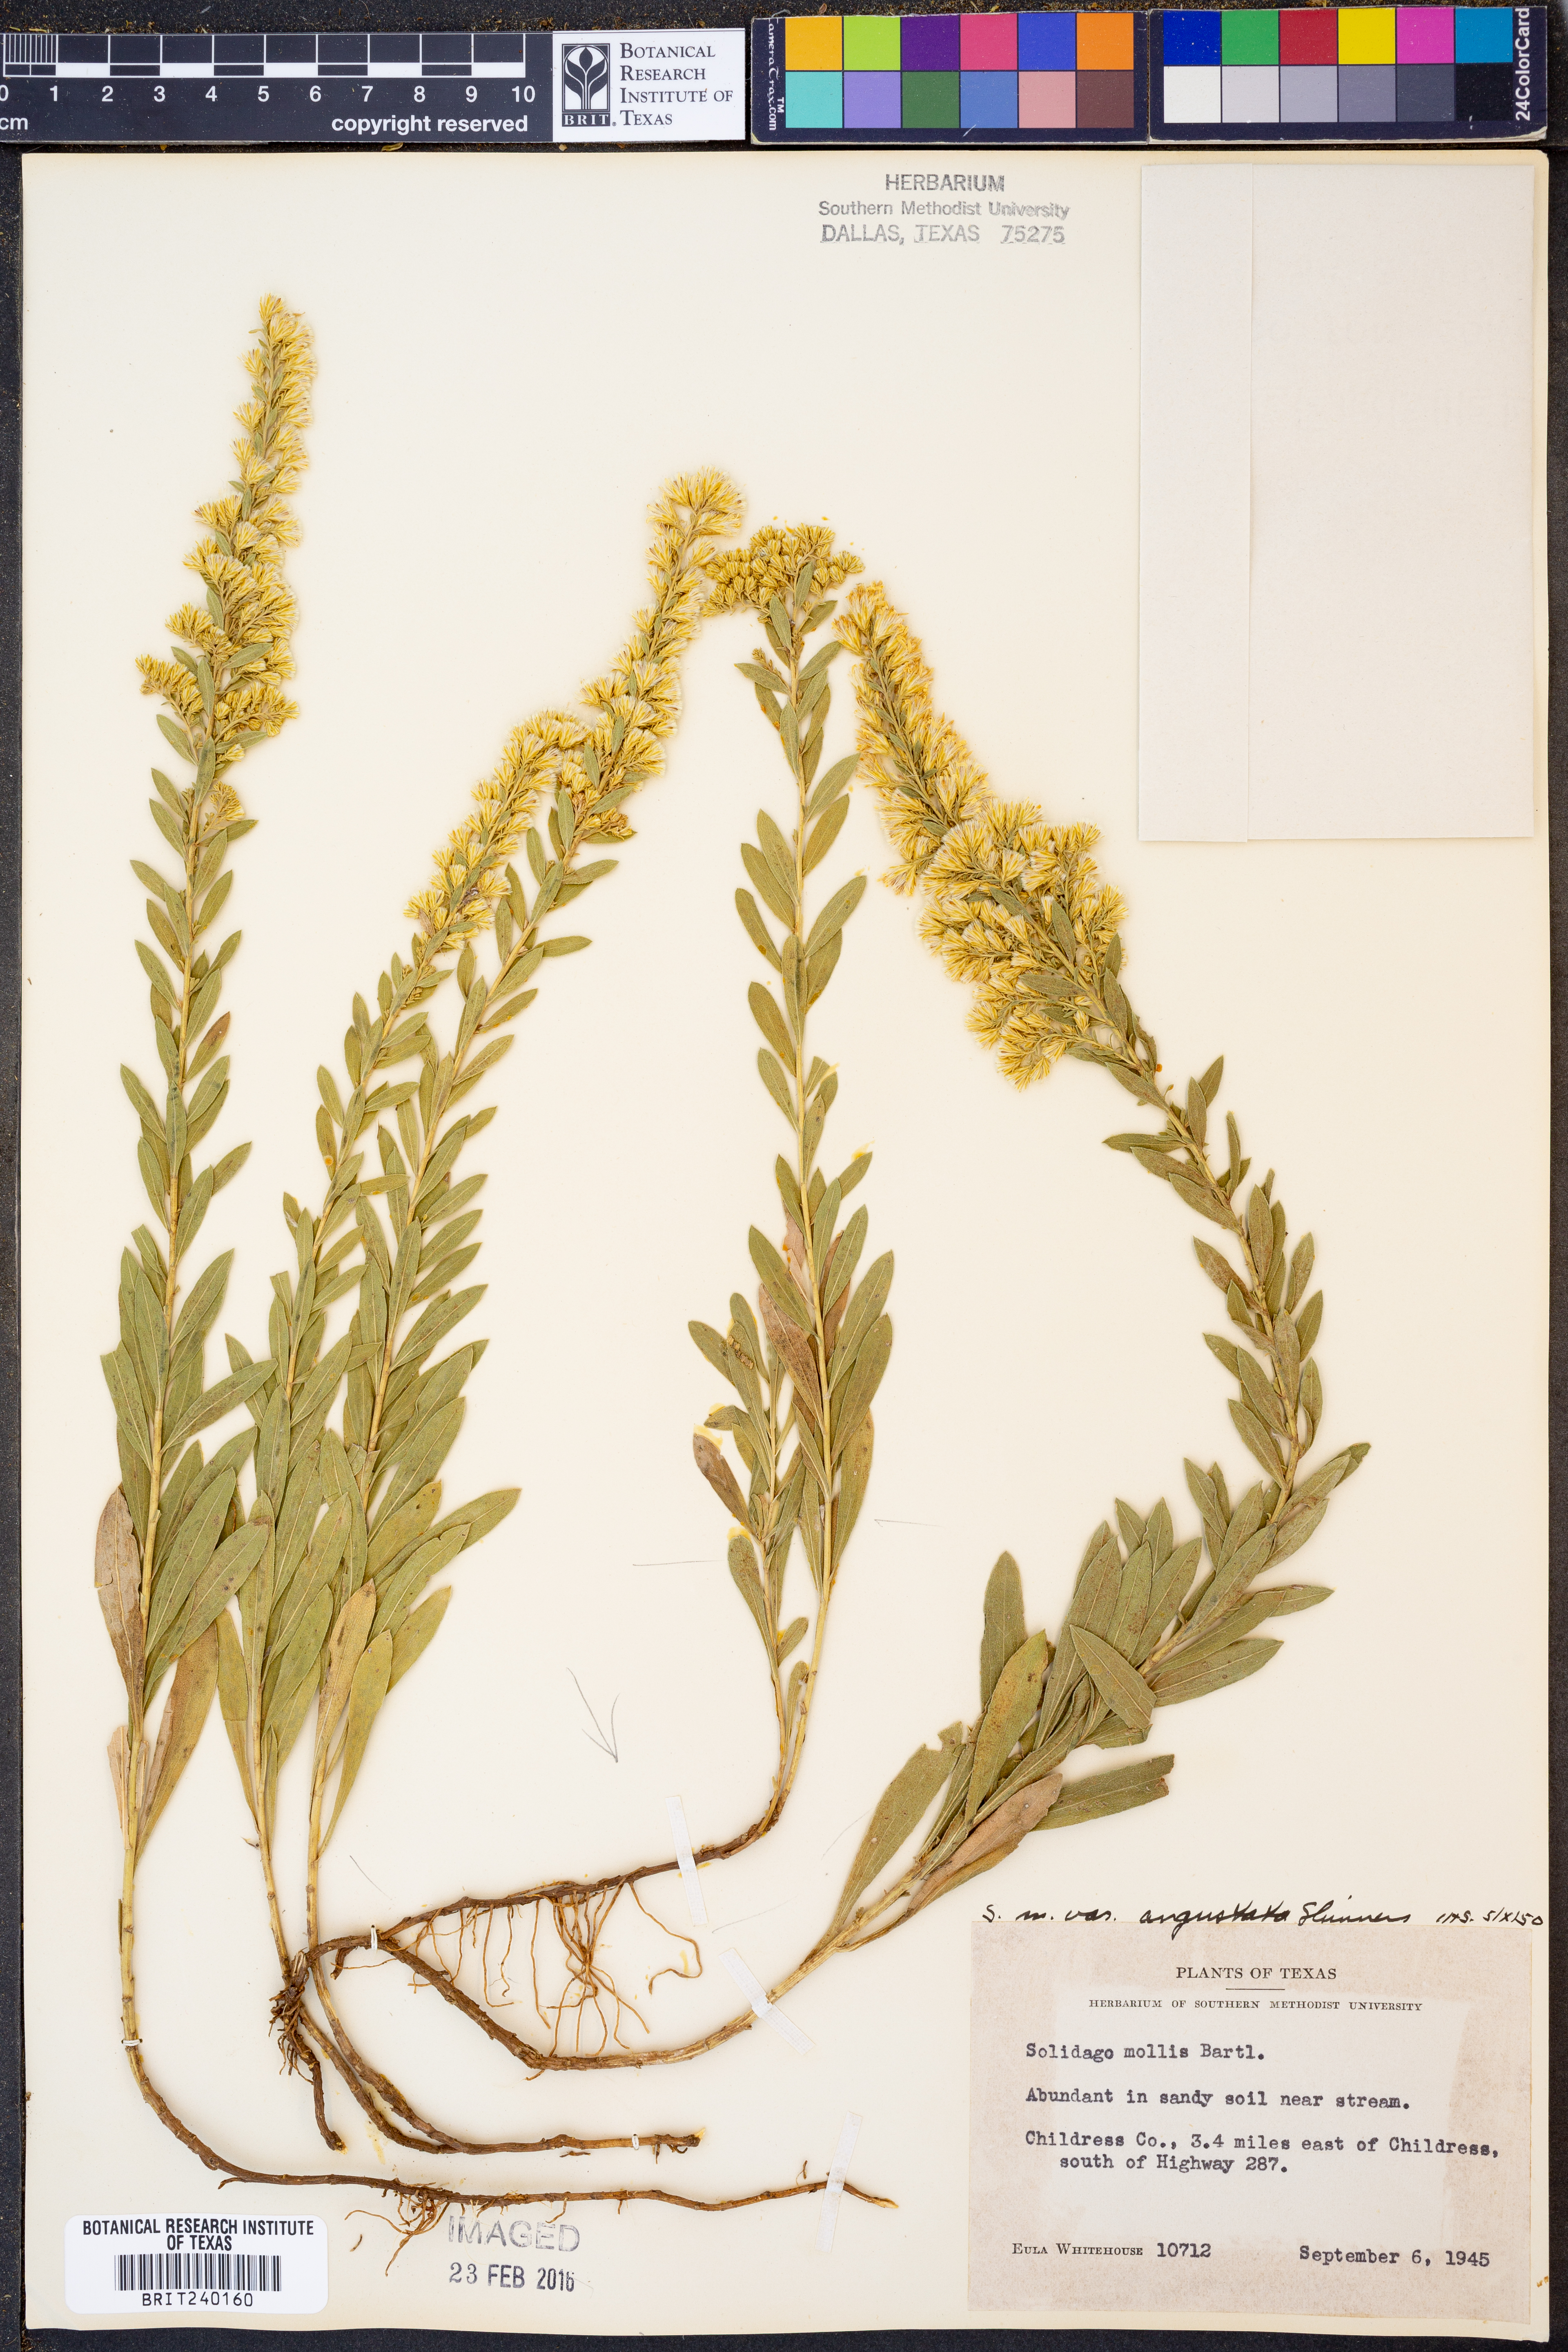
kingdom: Plantae
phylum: Tracheophyta
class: Magnoliopsida
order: Asterales
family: Asteraceae
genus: Solidago
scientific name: Solidago mollis
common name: Ashly goldenrod
